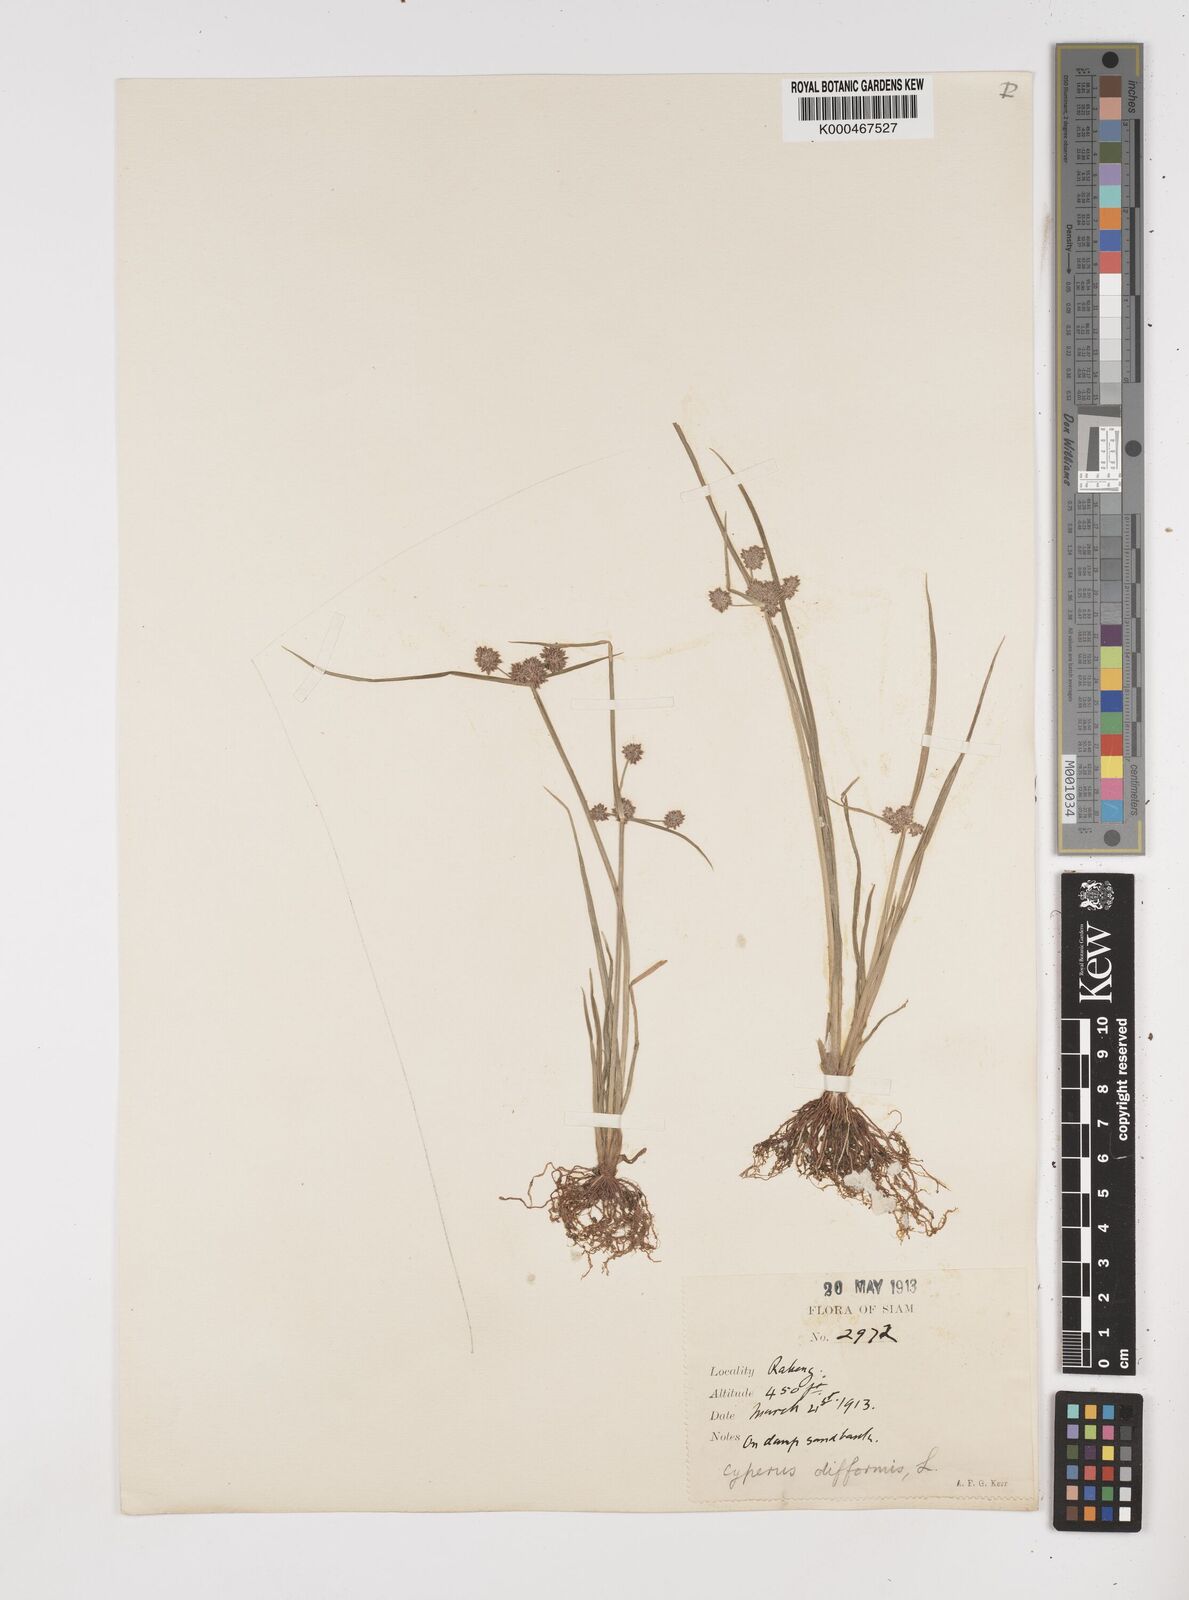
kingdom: Plantae
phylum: Tracheophyta
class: Liliopsida
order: Poales
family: Cyperaceae
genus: Cyperus
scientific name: Cyperus difformis
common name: Variable flatsedge
